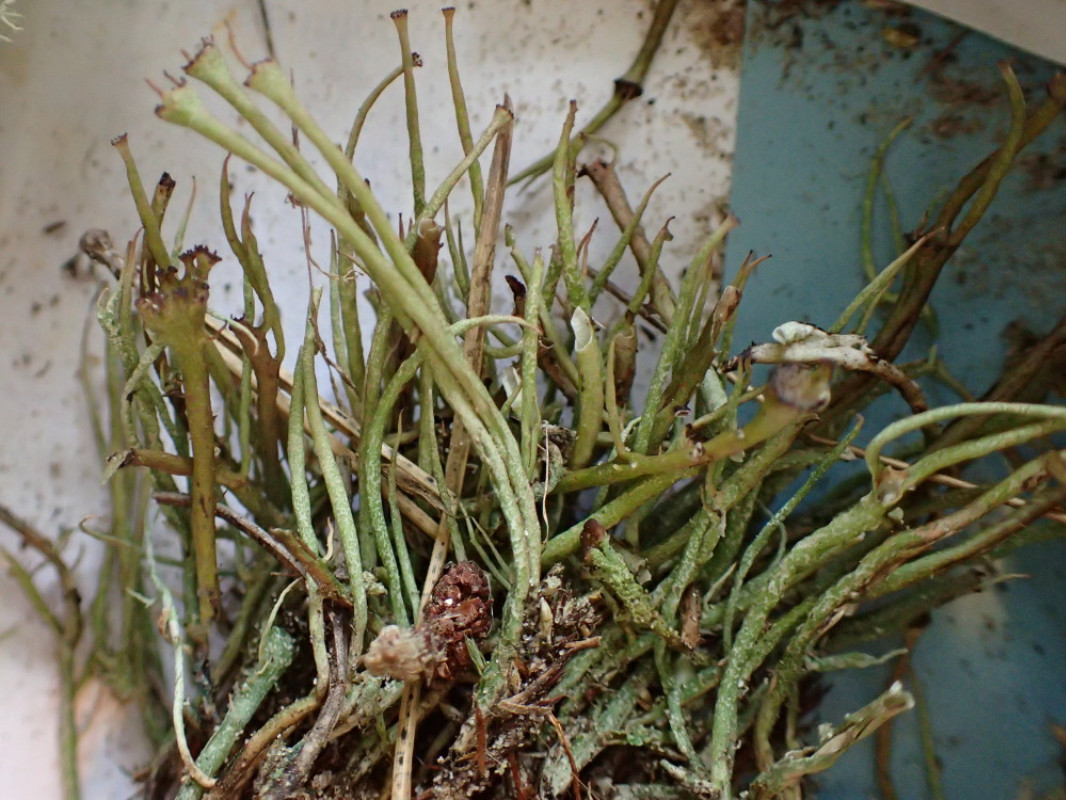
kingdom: Fungi
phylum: Ascomycota
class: Lecanoromycetes
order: Lecanorales
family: Cladoniaceae
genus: Cladonia
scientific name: Cladonia gracilis
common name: slank bægerlav
